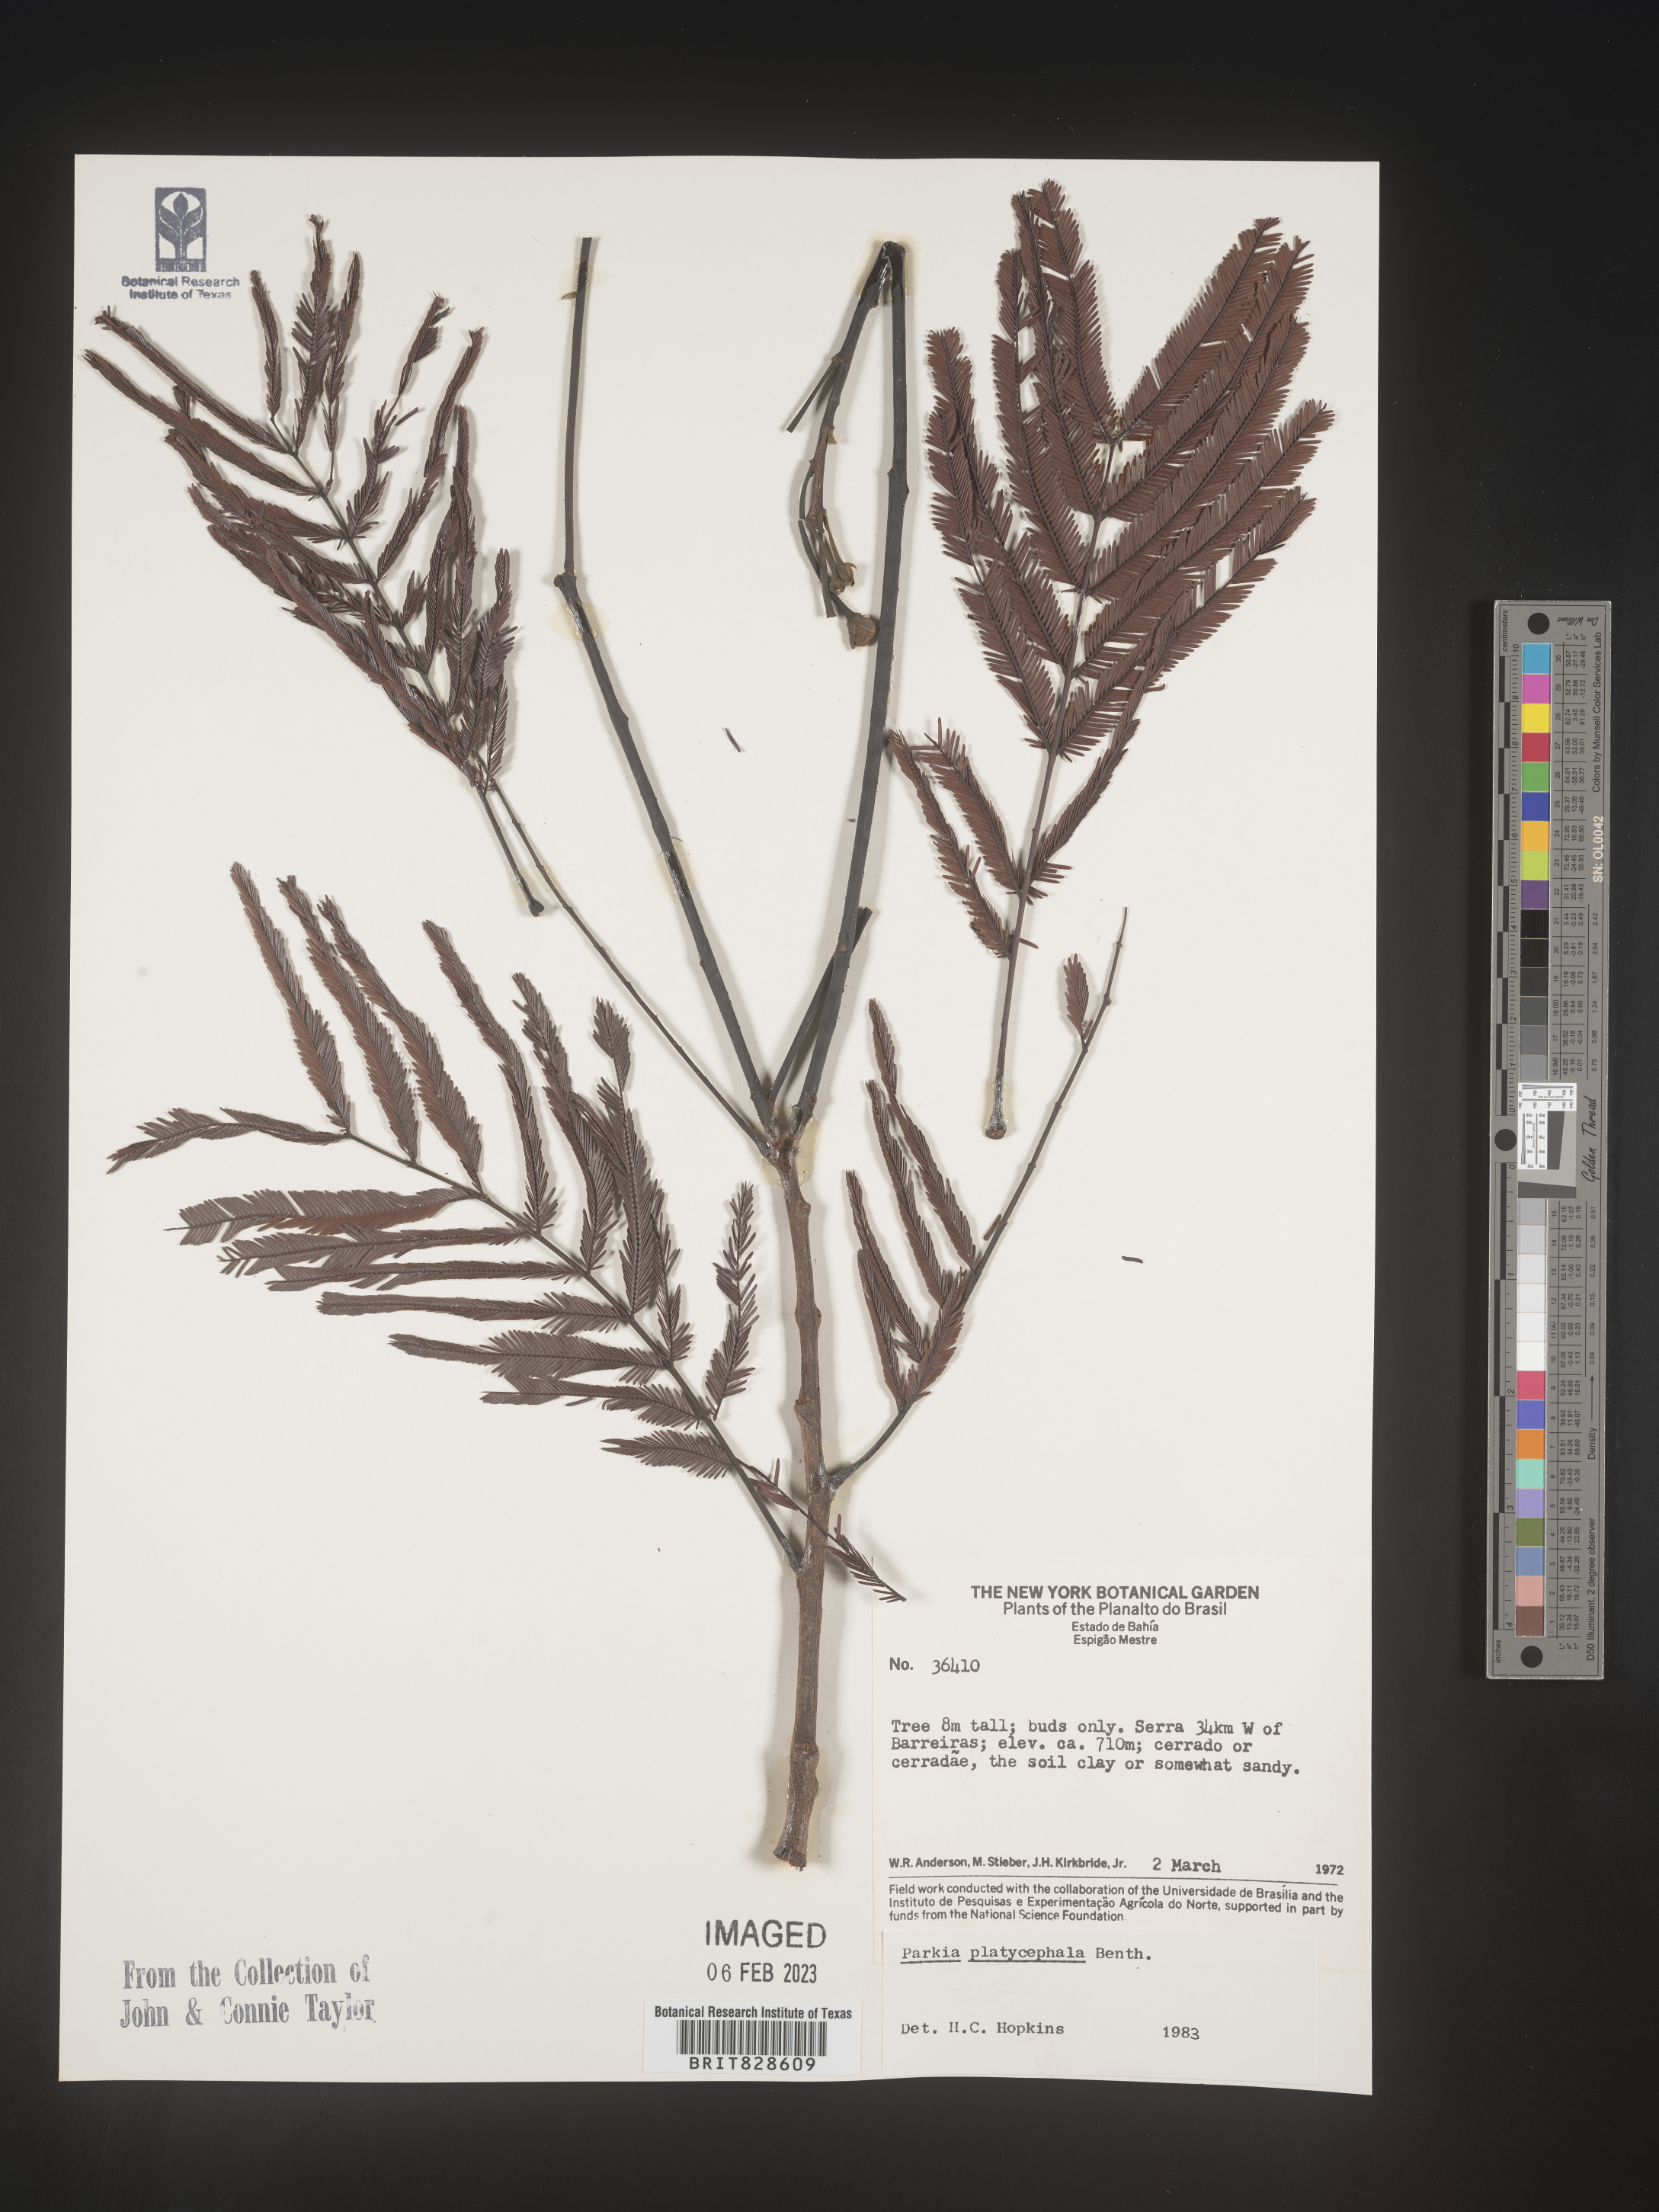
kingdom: Plantae
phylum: Tracheophyta
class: Magnoliopsida
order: Fabales
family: Fabaceae
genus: Parkia
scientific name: Parkia
